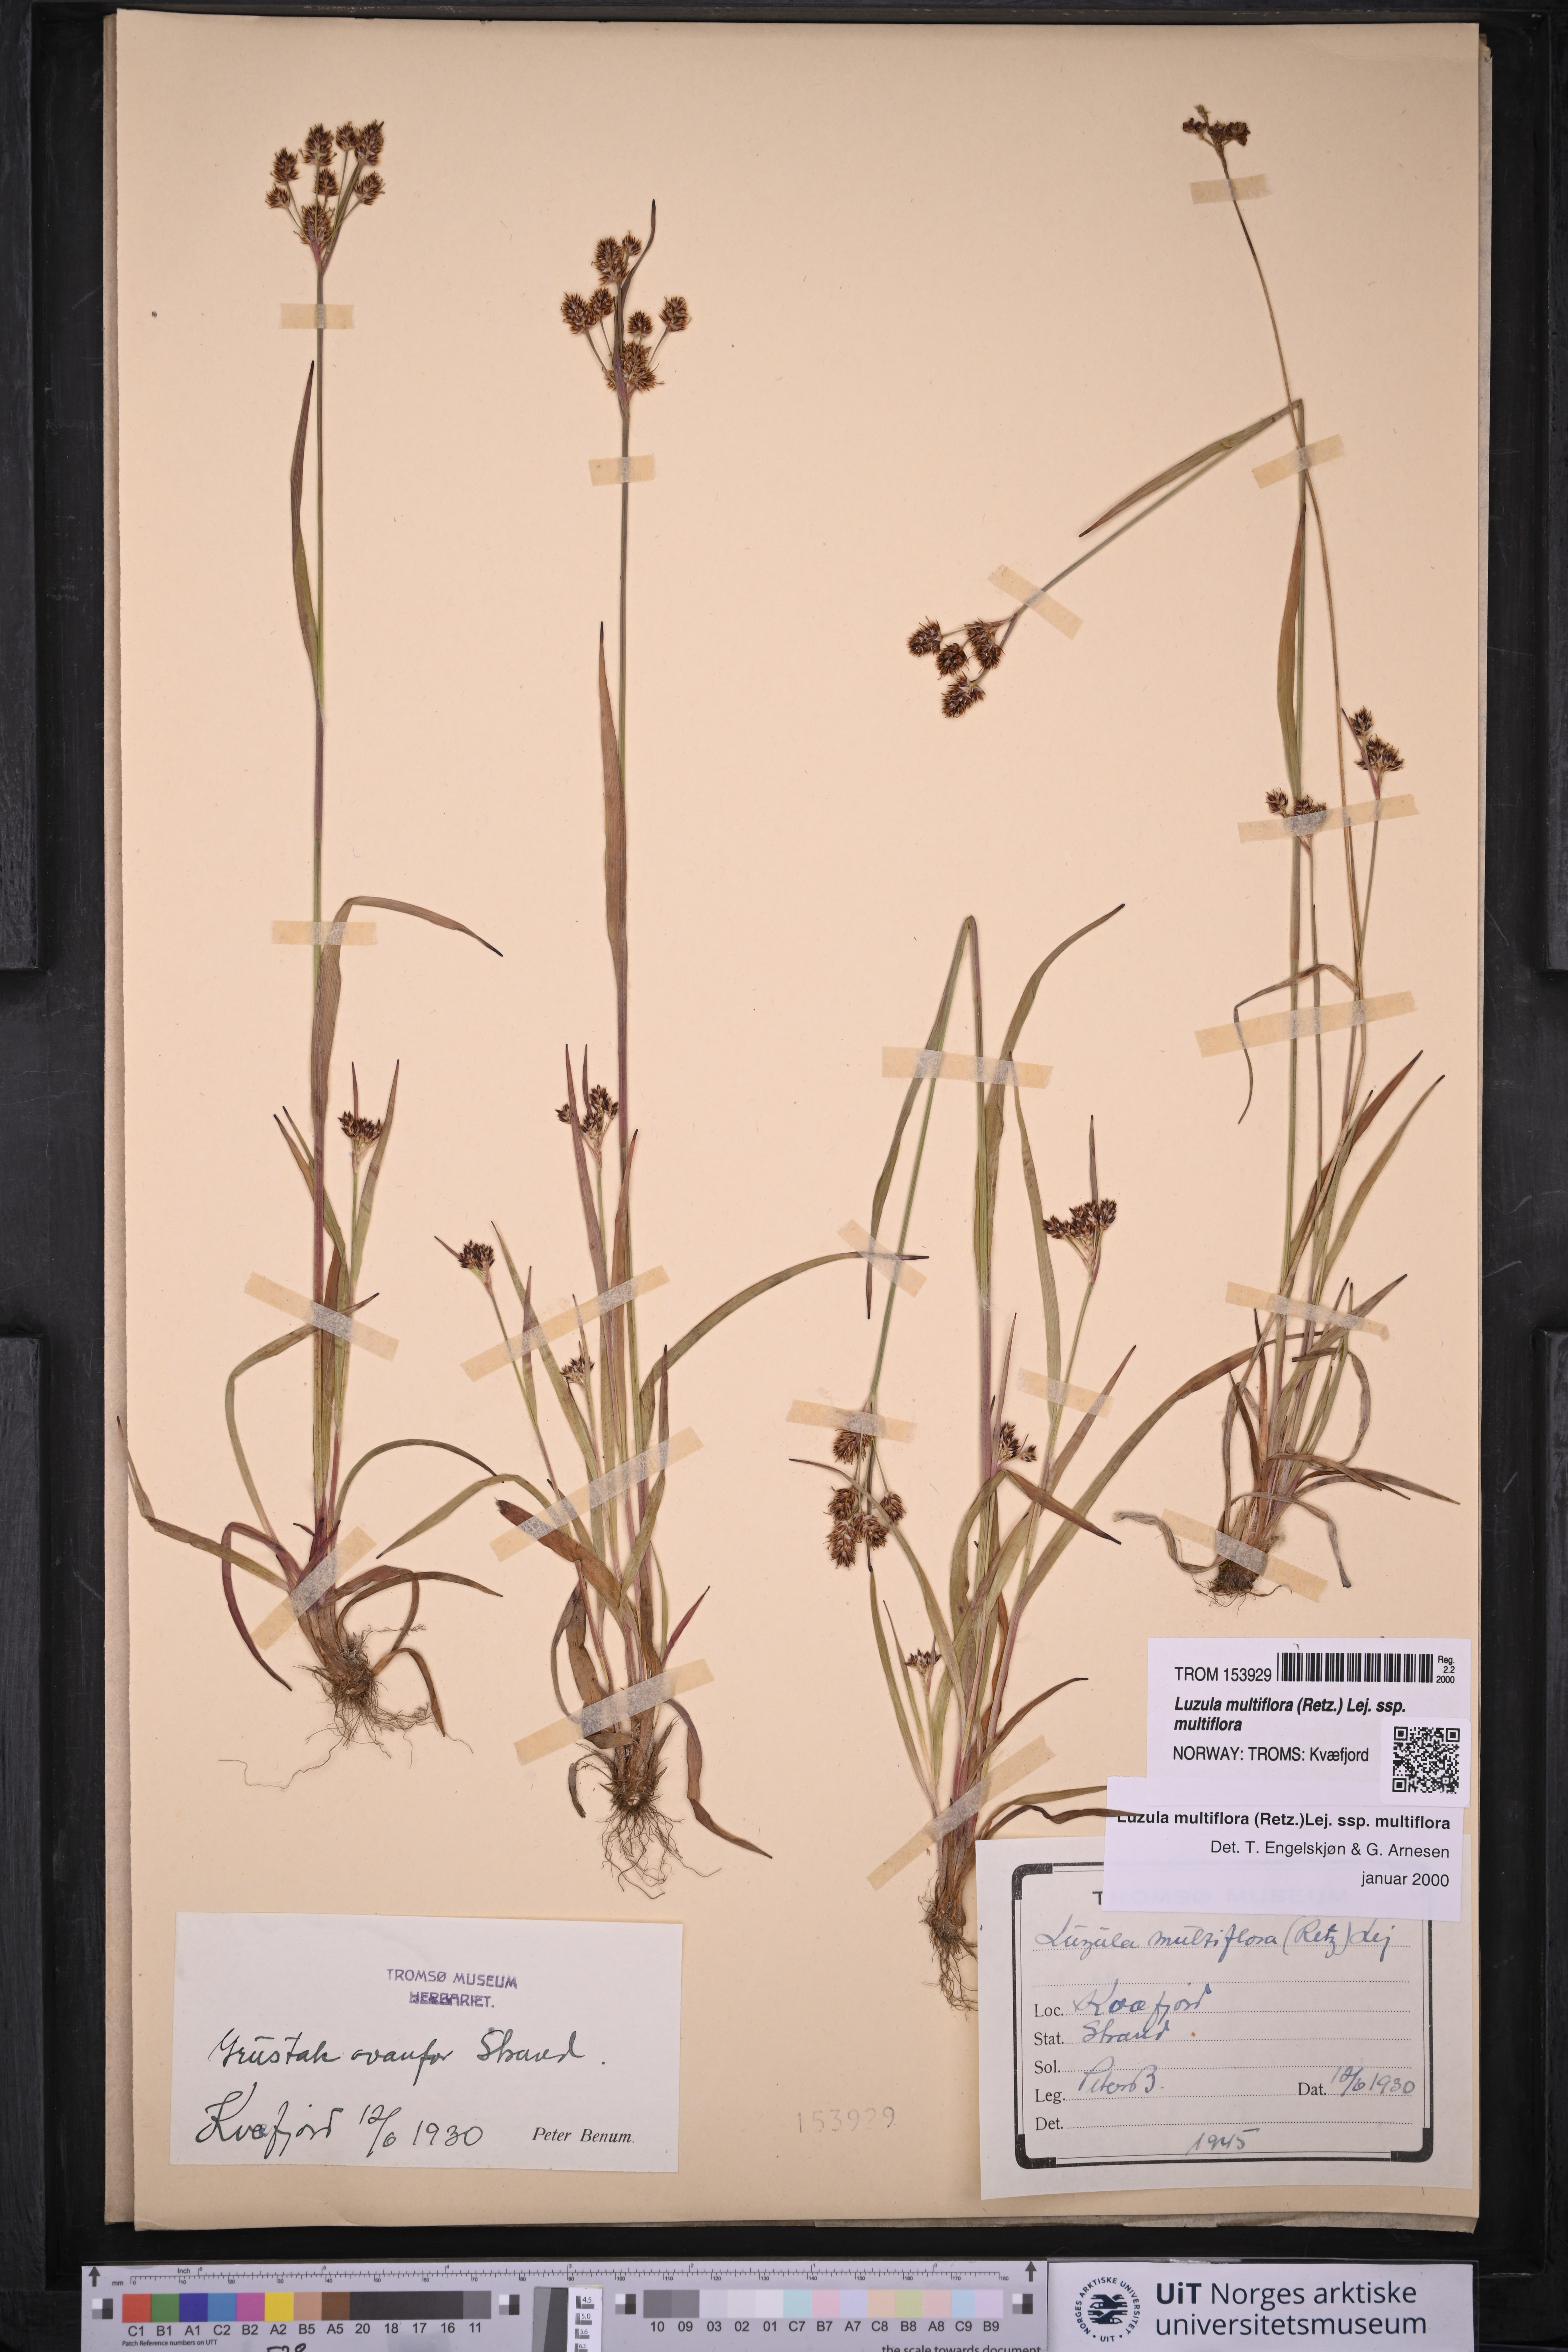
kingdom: Plantae
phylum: Tracheophyta
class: Liliopsida
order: Poales
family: Juncaceae
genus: Luzula
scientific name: Luzula multiflora
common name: Heath wood-rush
